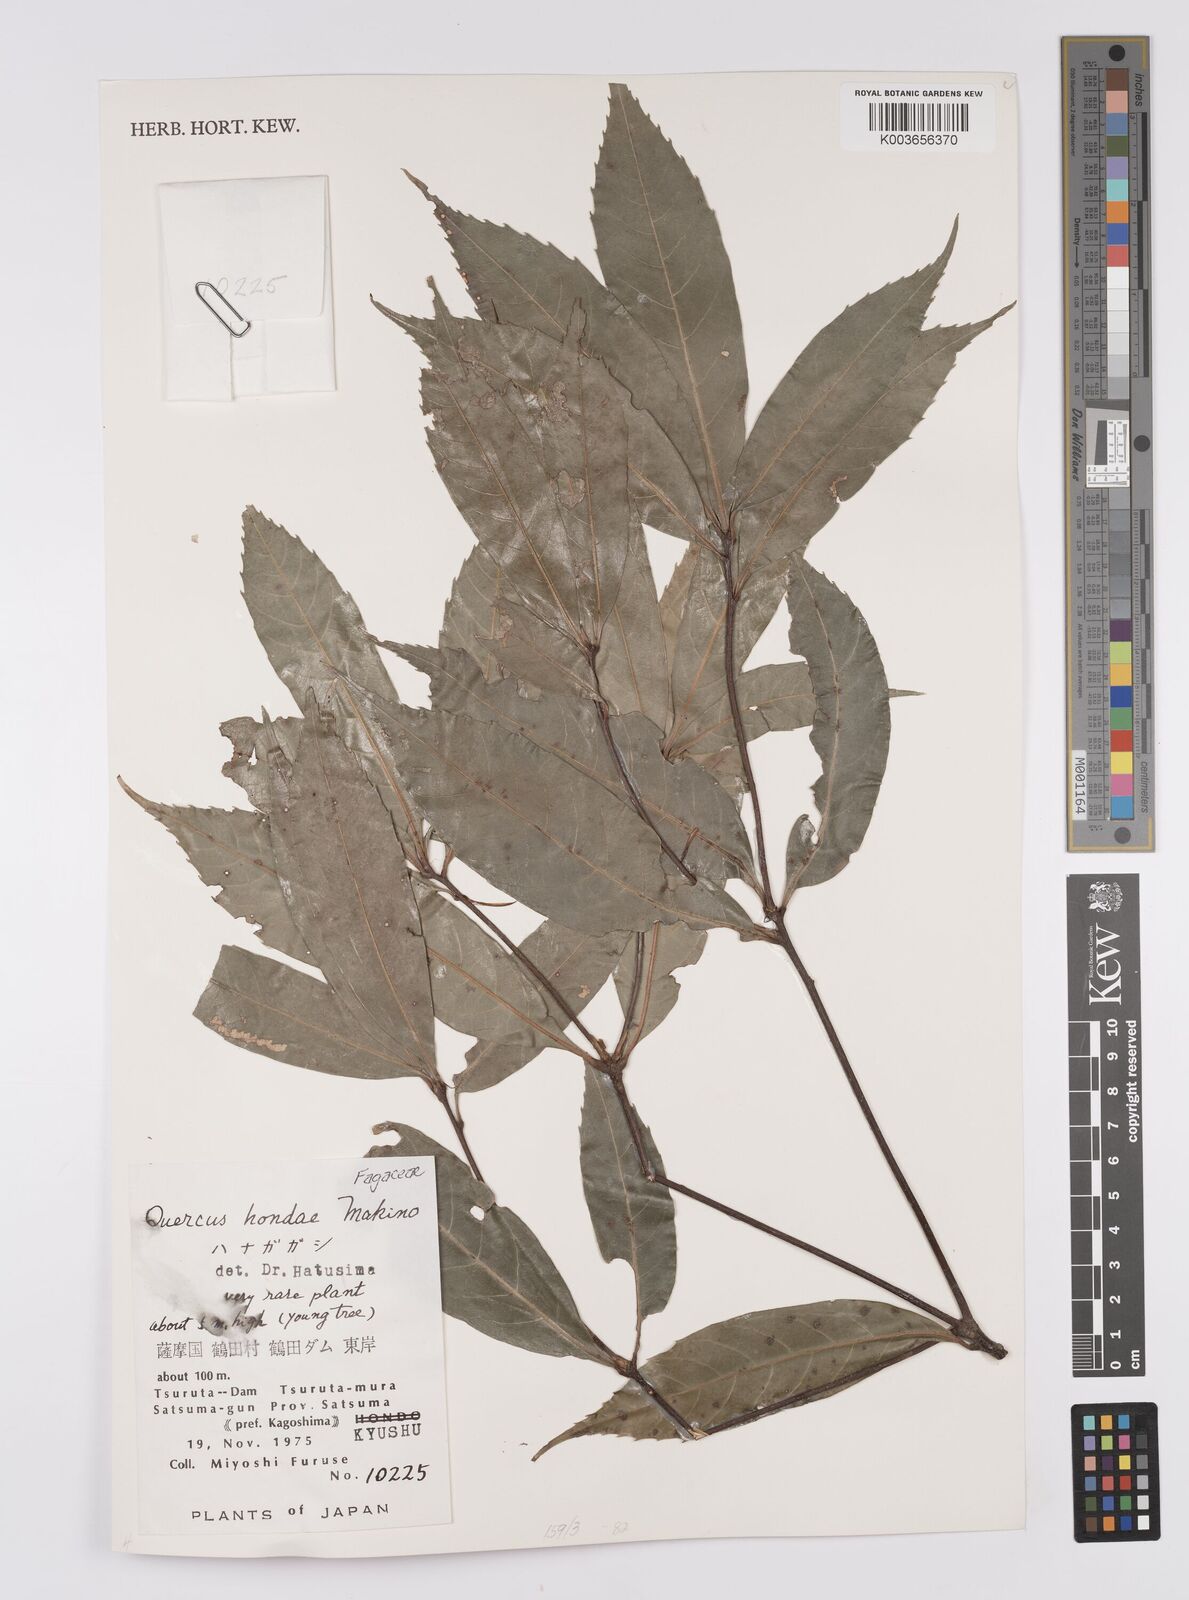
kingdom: Plantae
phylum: Tracheophyta
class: Magnoliopsida
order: Fagales
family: Fagaceae
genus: Quercus
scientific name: Quercus hondae
